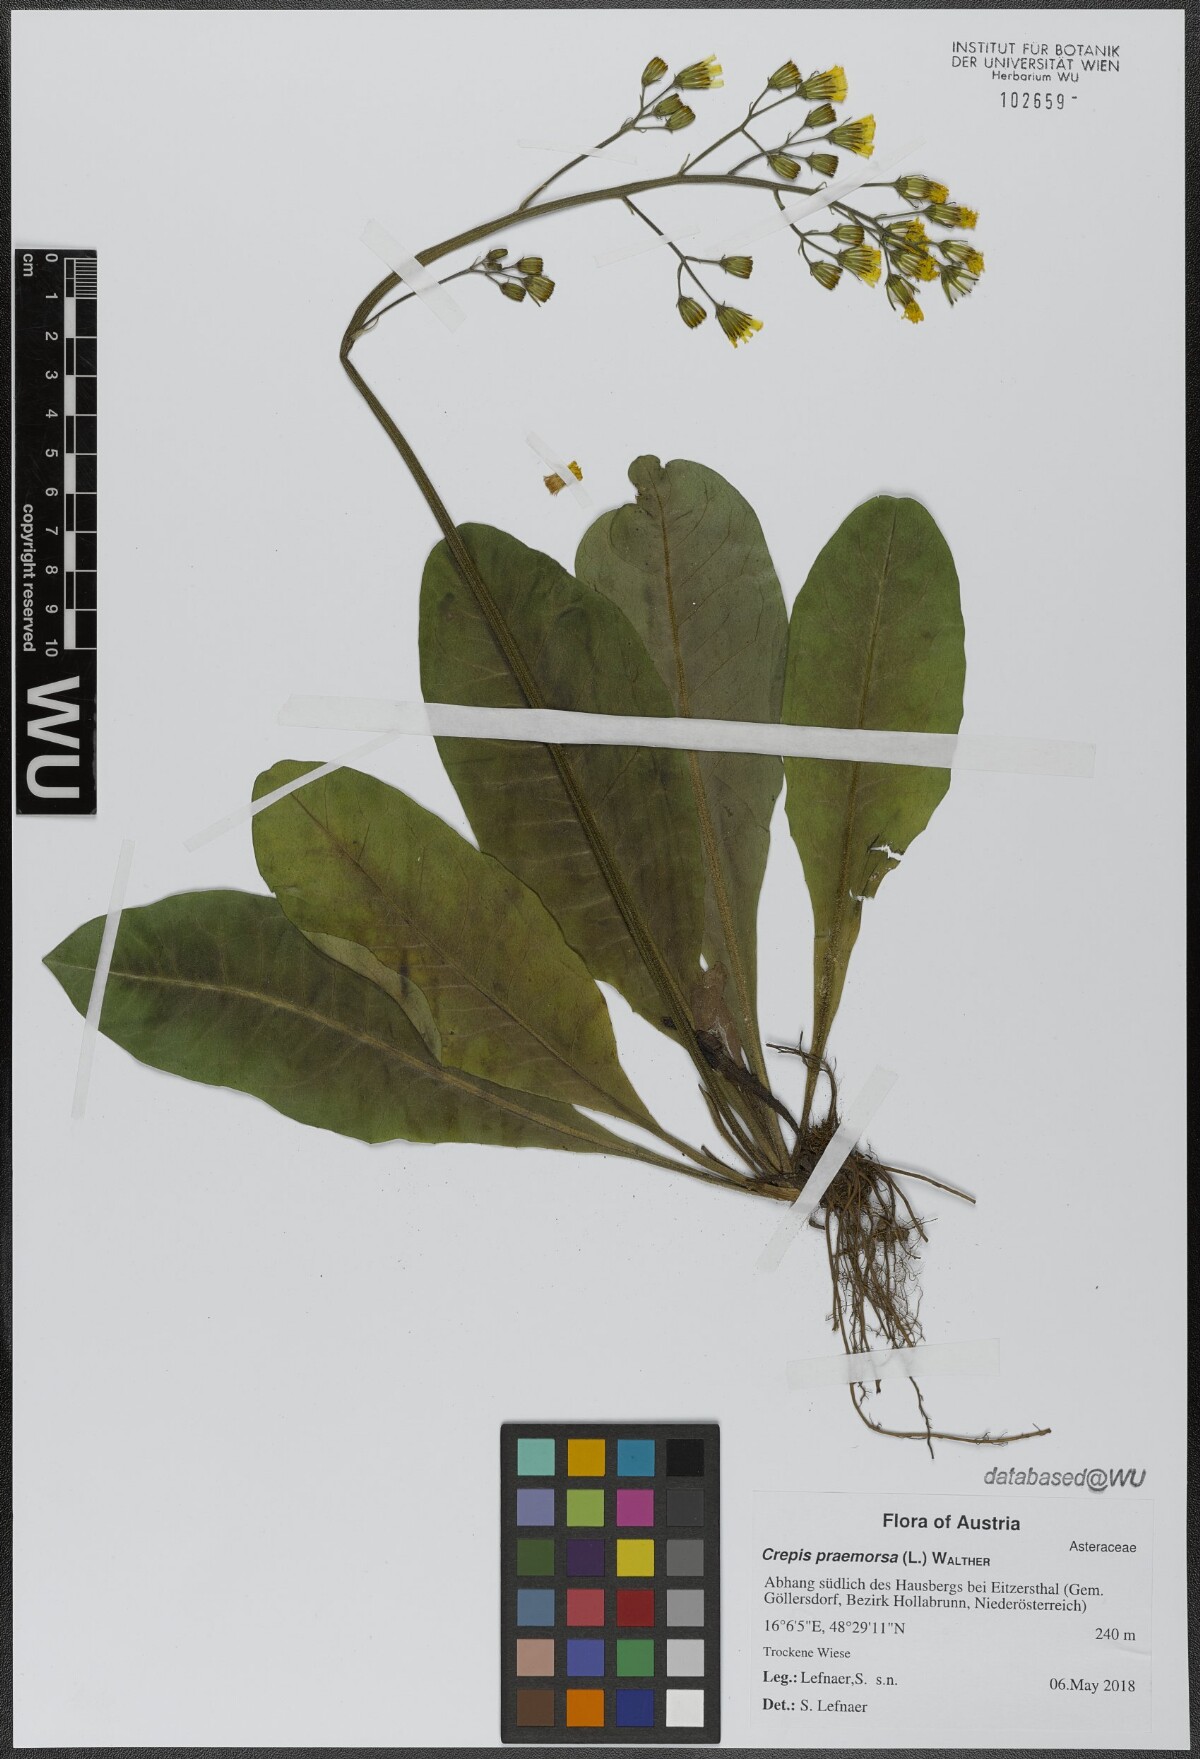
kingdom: Plantae
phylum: Tracheophyta
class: Magnoliopsida
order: Asterales
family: Asteraceae
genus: Crepis
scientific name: Crepis praemorsa
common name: Leafless hawk's-beard
